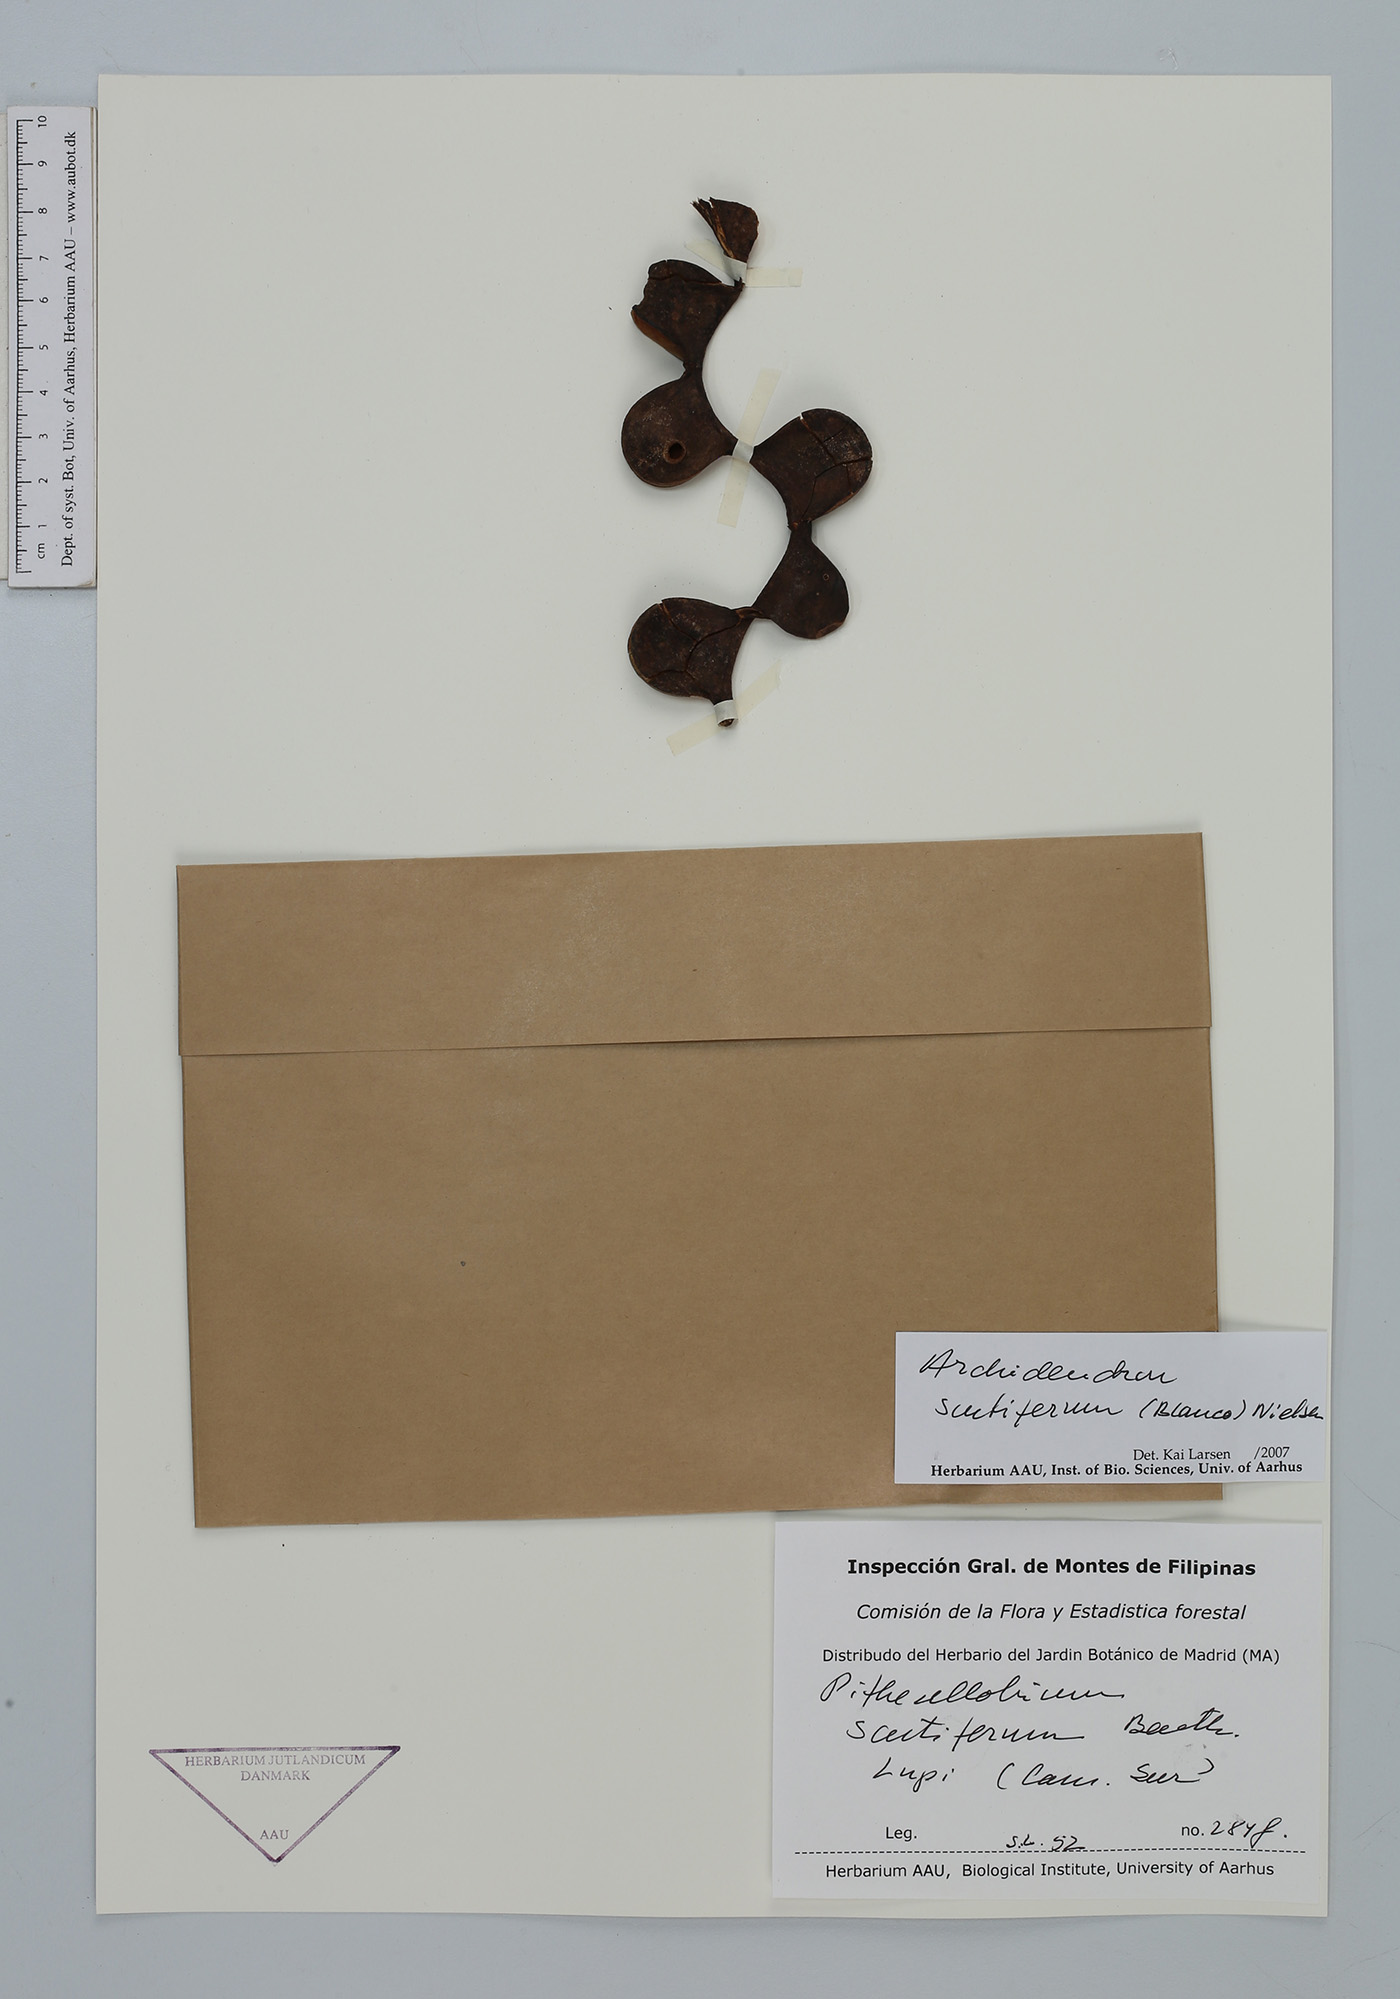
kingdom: Plantae
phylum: Tracheophyta
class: Magnoliopsida
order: Fabales
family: Fabaceae
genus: Archidendron
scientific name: Archidendron scutiferum
